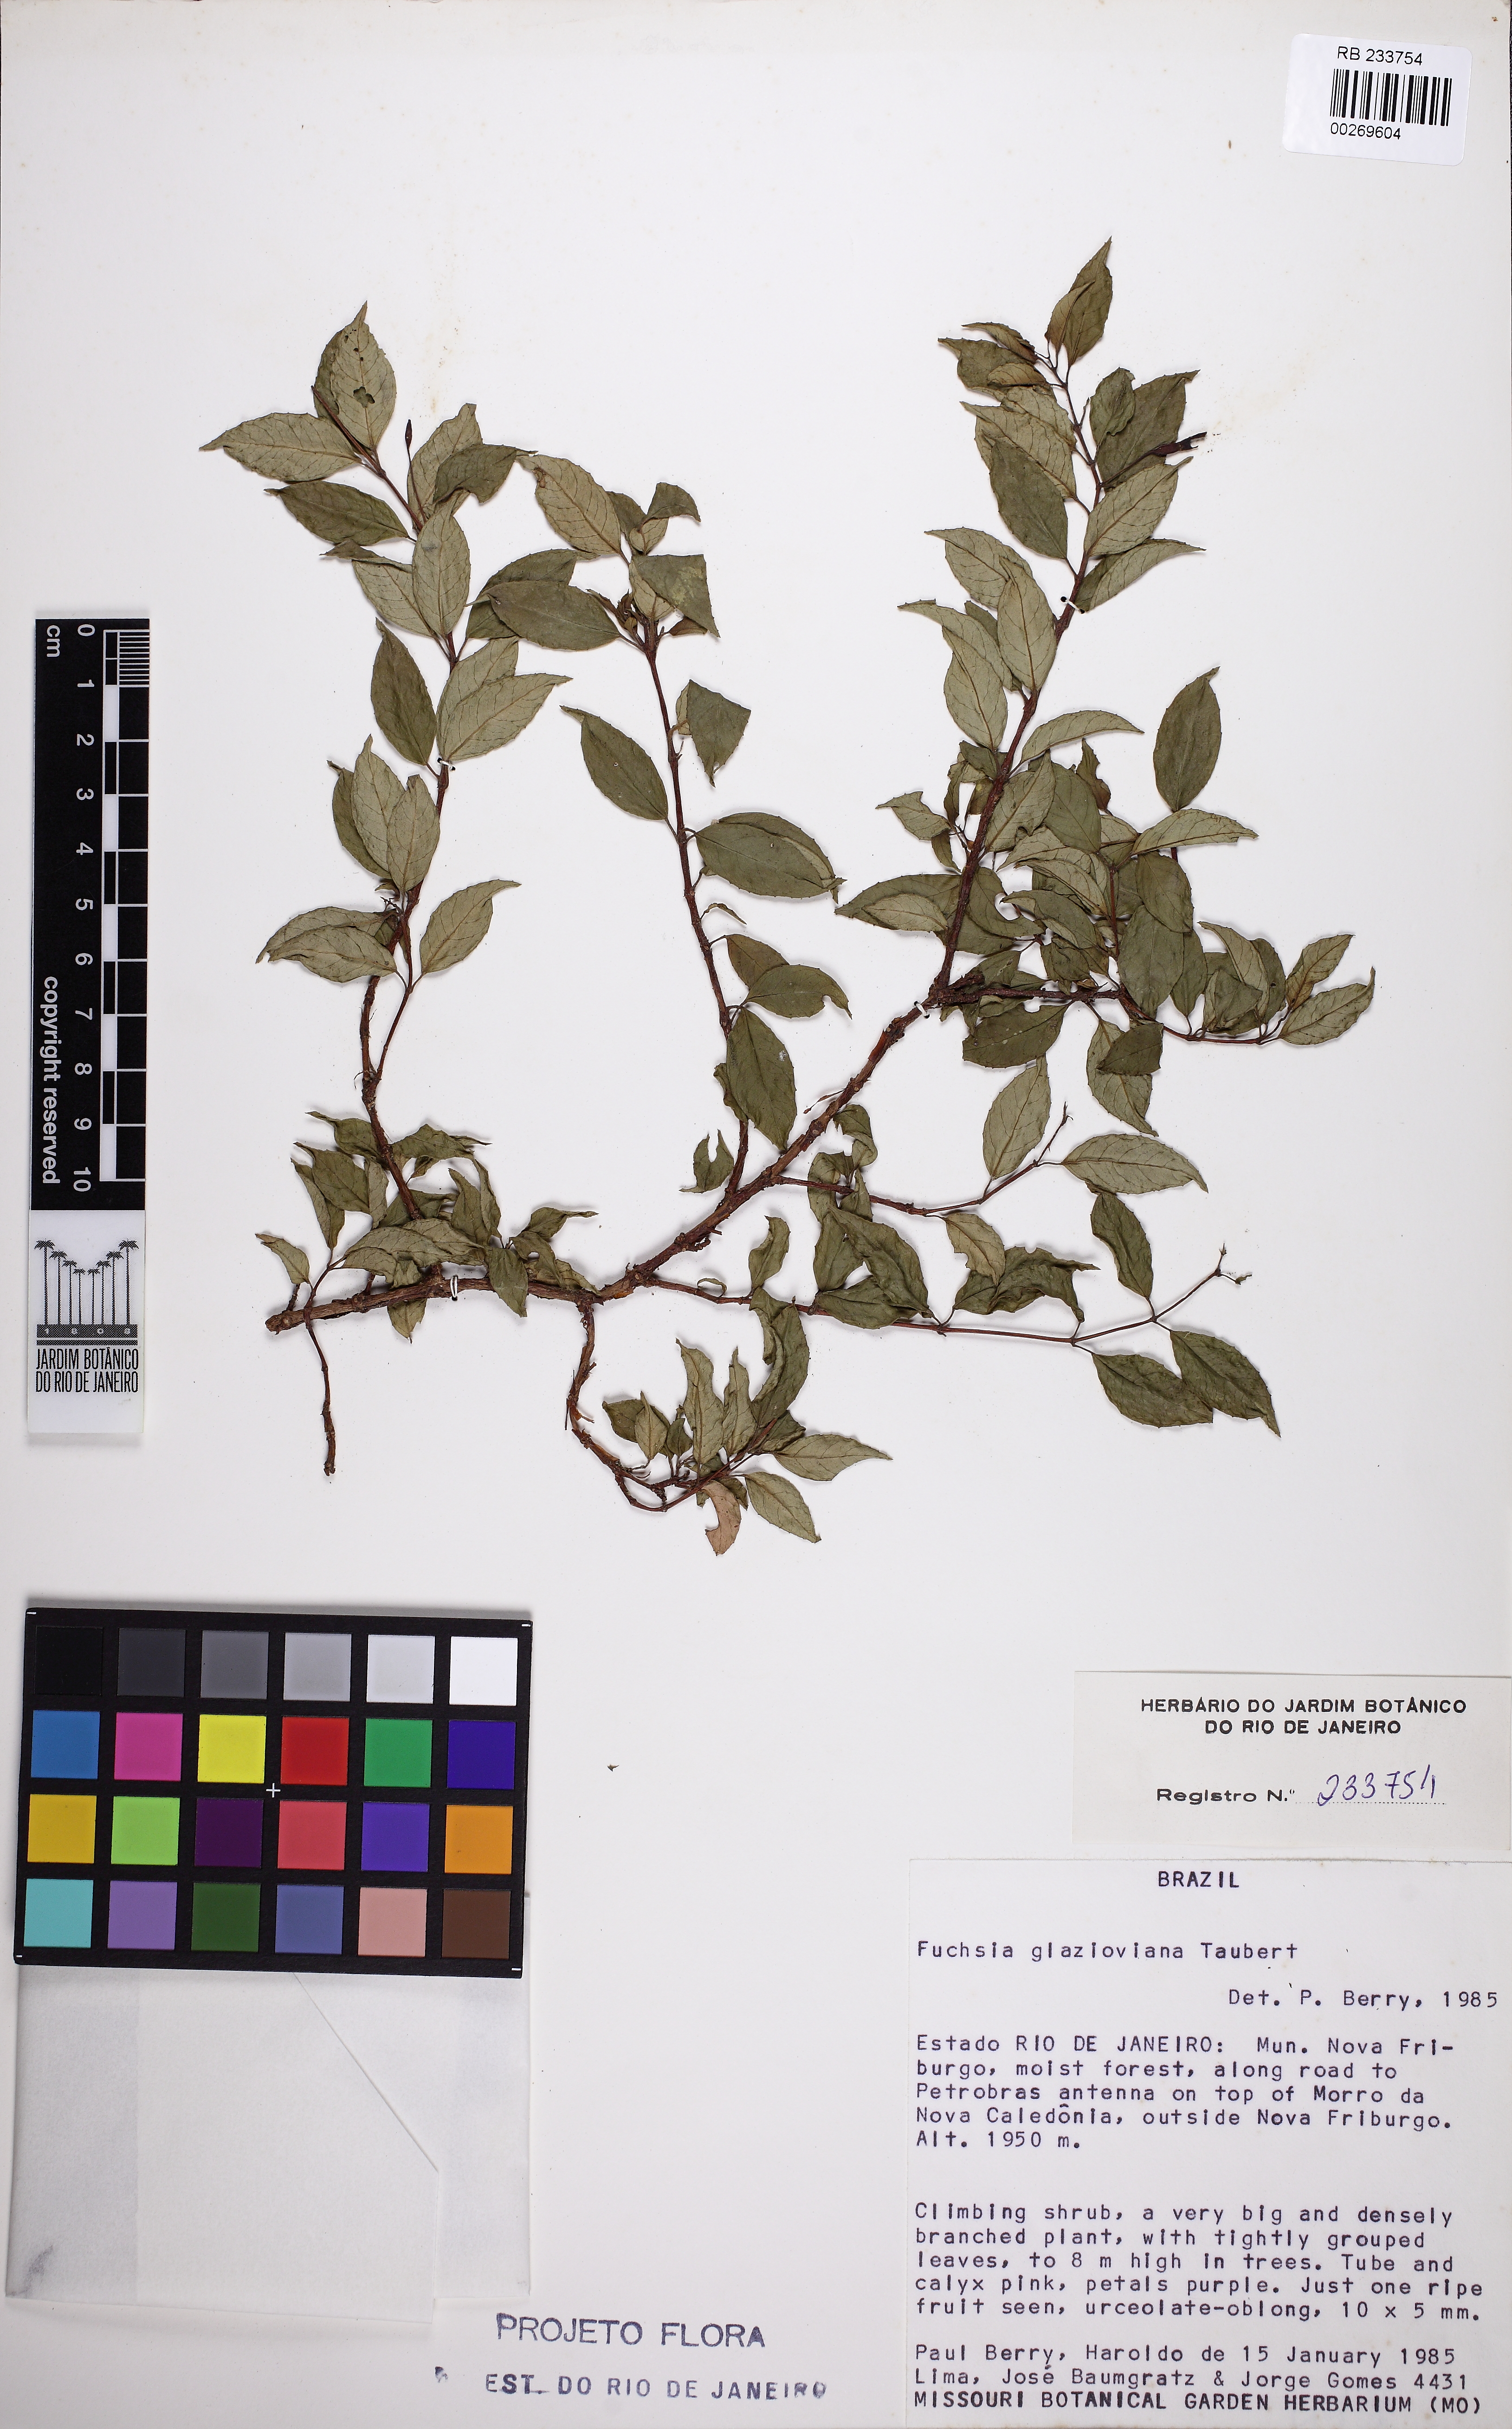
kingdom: Plantae
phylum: Tracheophyta
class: Magnoliopsida
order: Myrtales
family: Onagraceae
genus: Fuchsia
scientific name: Fuchsia glazioviana
